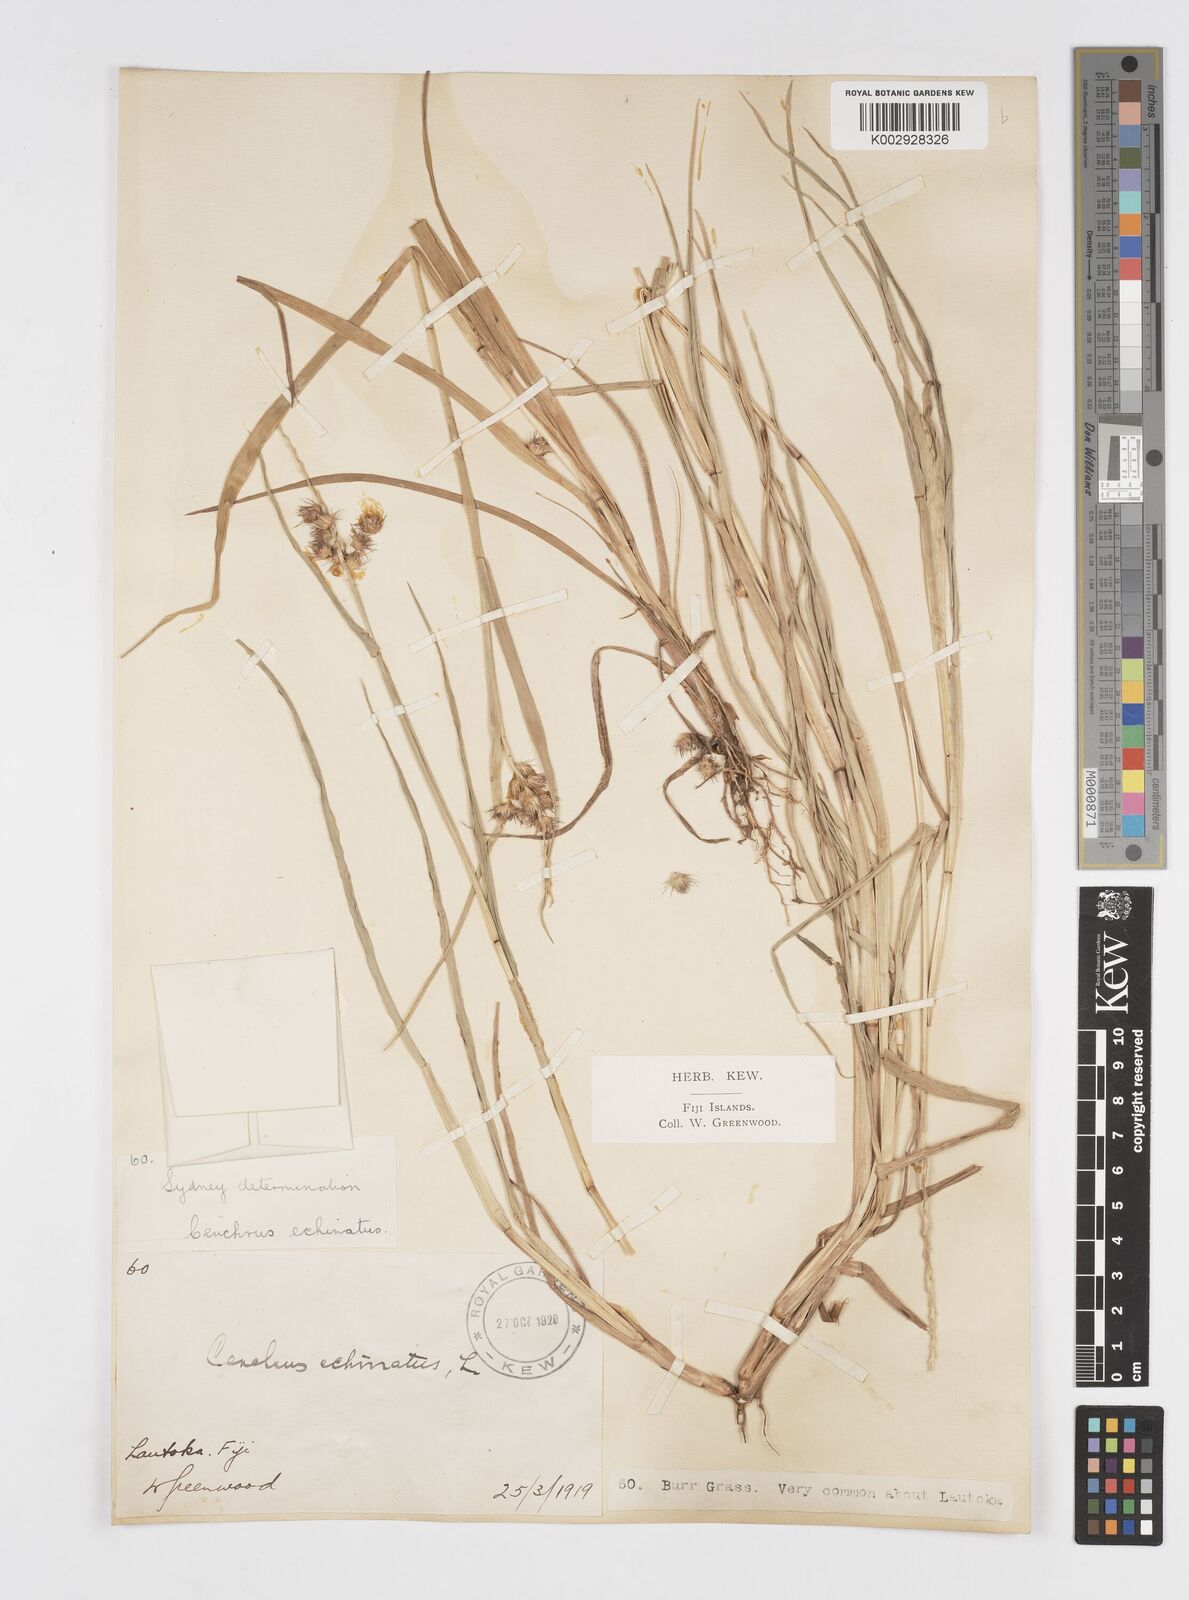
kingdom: Plantae
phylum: Tracheophyta
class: Liliopsida
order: Poales
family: Poaceae
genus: Cenchrus
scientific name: Cenchrus echinatus
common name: Southern sandbur
